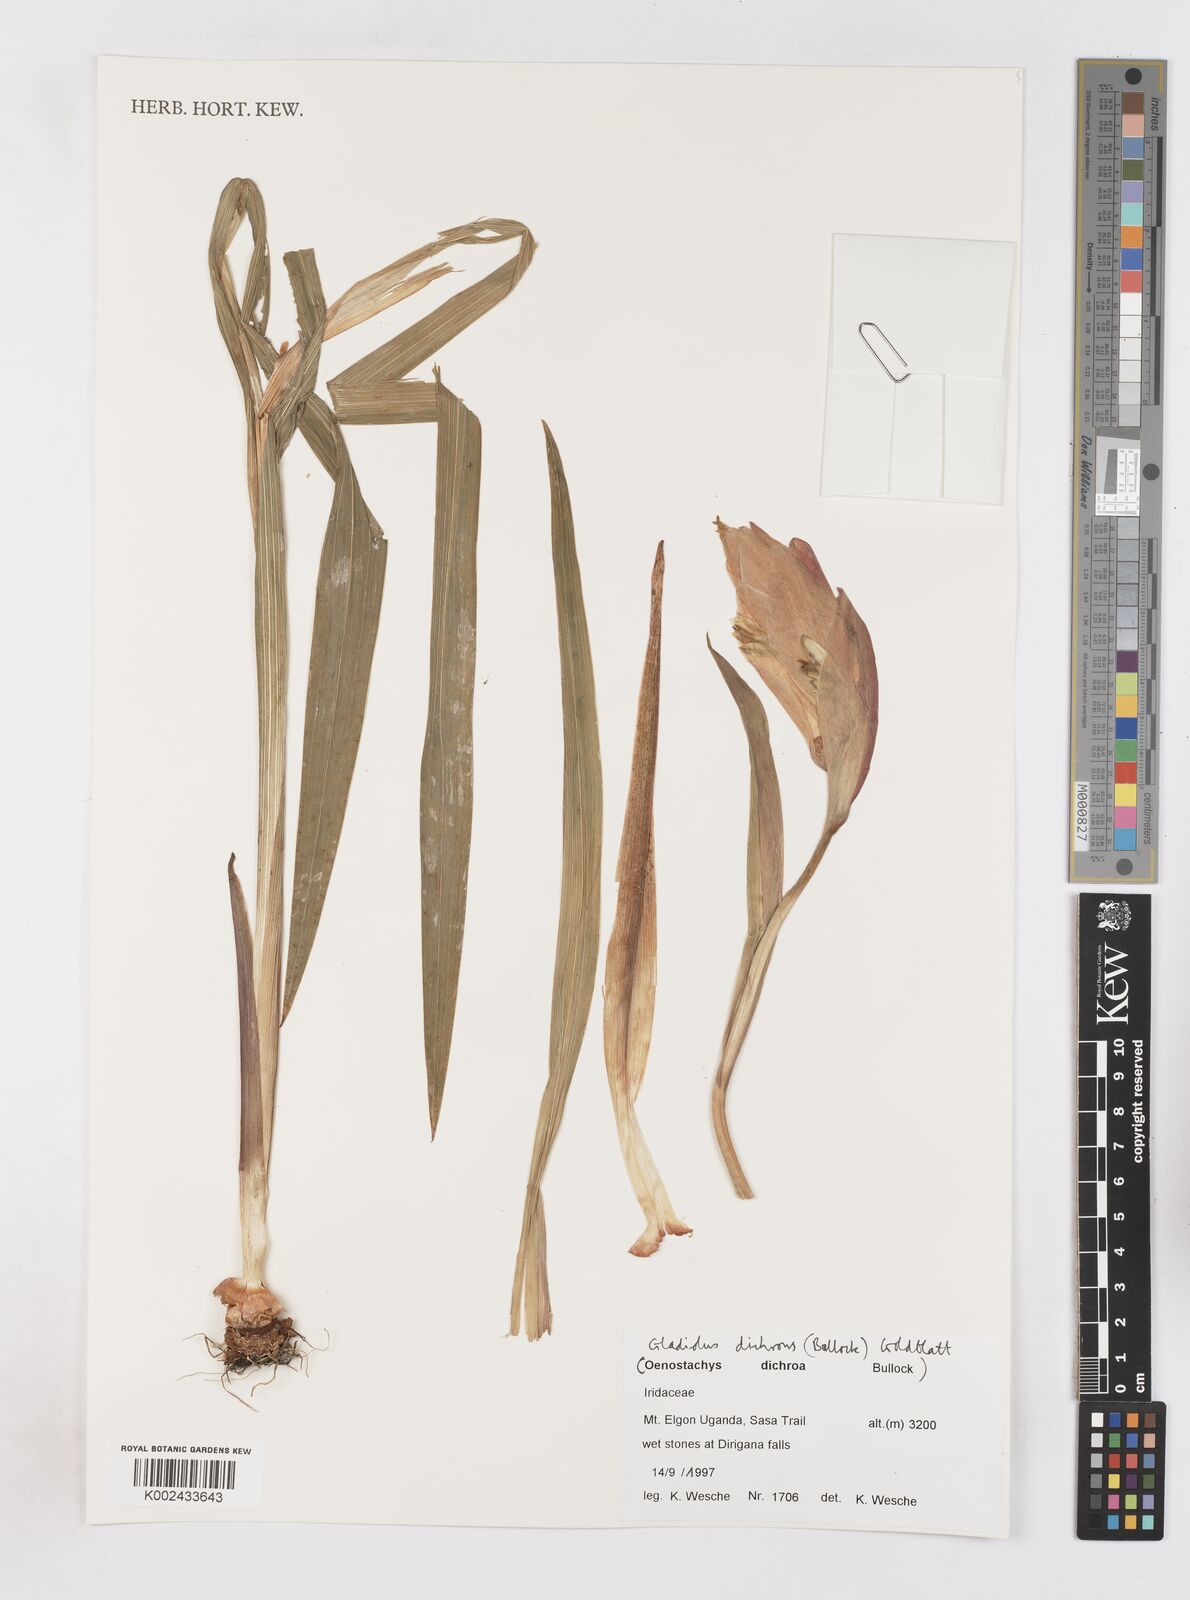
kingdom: Plantae
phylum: Tracheophyta
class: Liliopsida
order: Asparagales
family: Iridaceae
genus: Gladiolus
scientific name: Gladiolus dichrous
